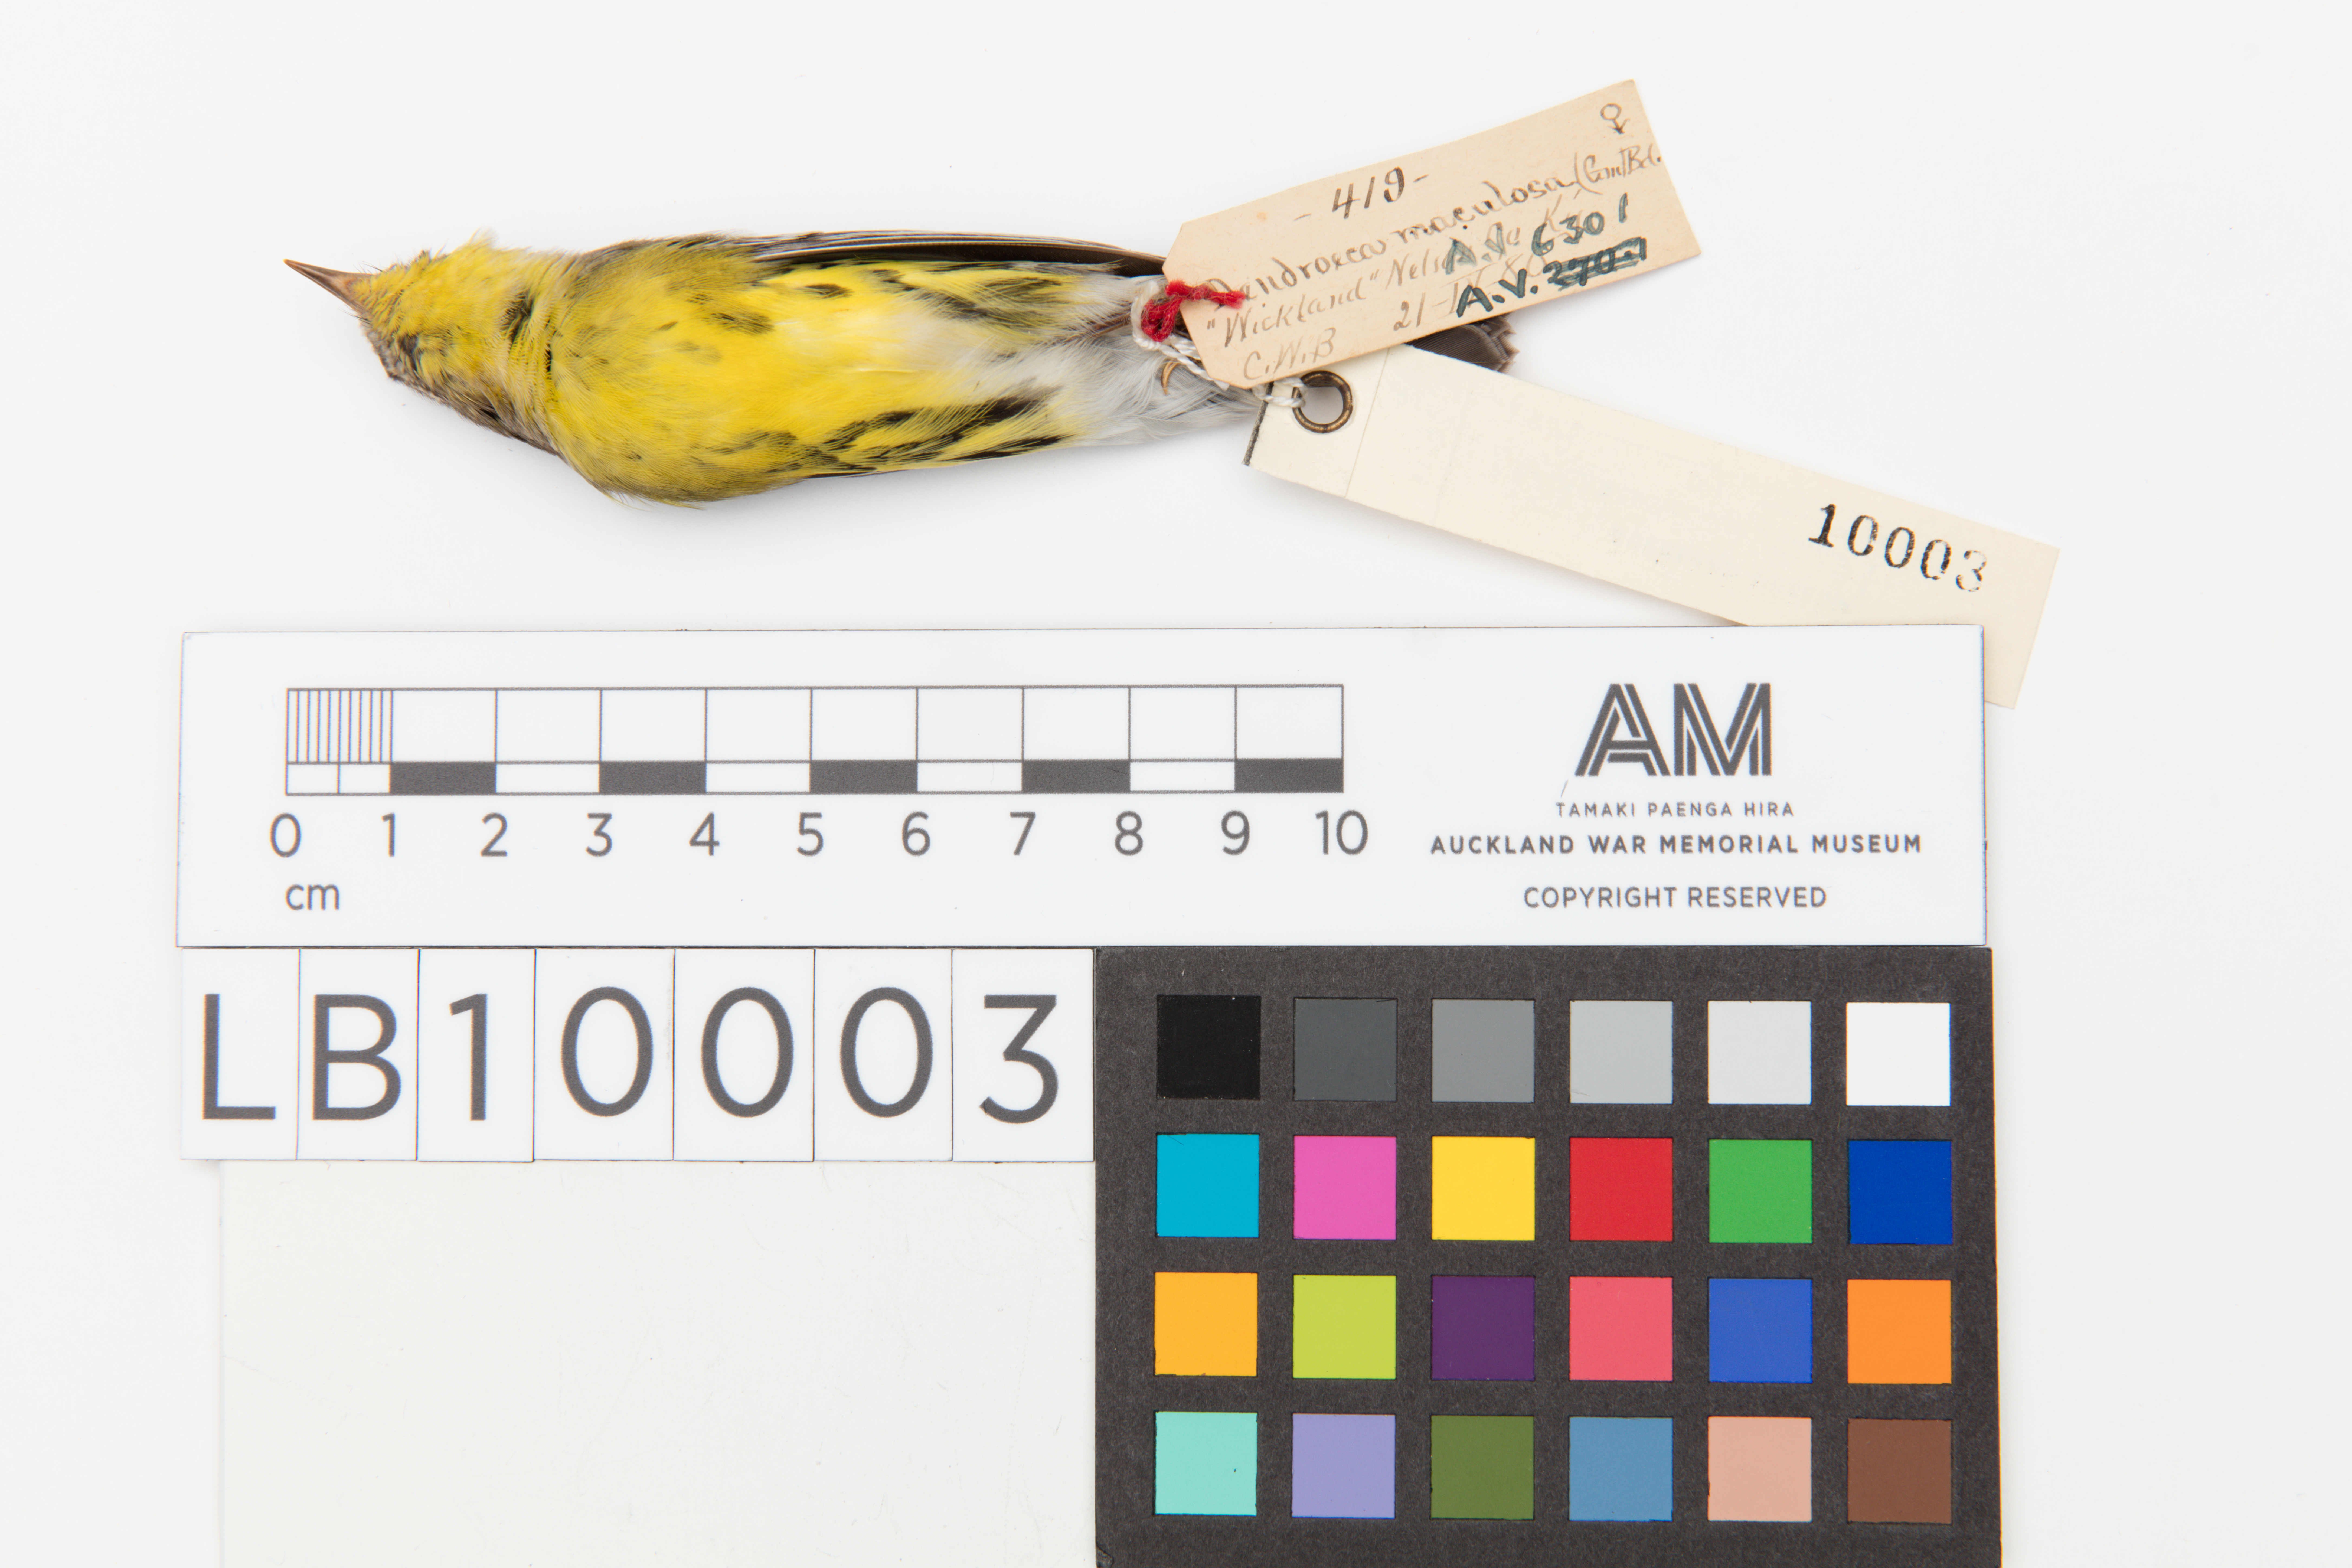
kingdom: Animalia
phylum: Chordata
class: Aves
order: Passeriformes
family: Parulidae
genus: Setophaga
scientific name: Setophaga magnolia
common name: Magnolia warbler
